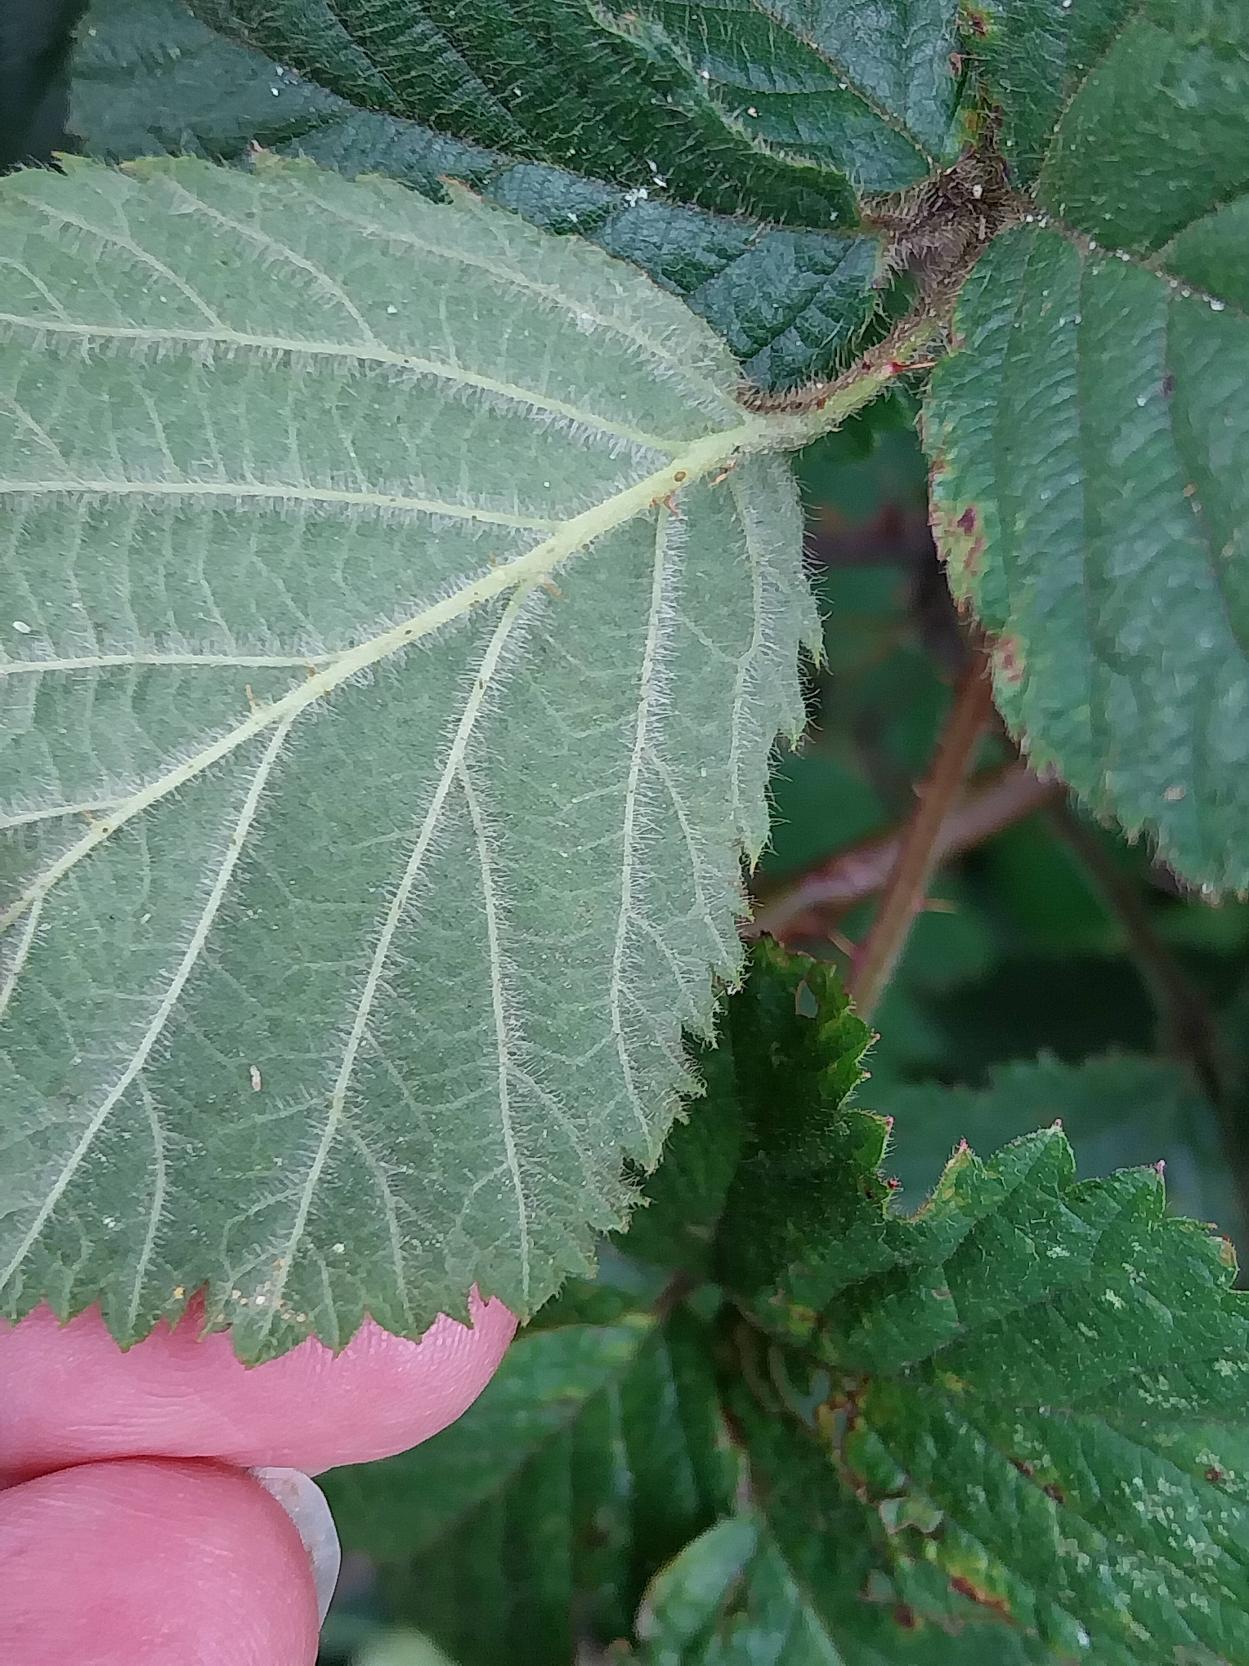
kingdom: Plantae
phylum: Tracheophyta
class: Magnoliopsida
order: Rosales
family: Rosaceae
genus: Rubus
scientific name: Rubus vestitus
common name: Rundbladet brombær
